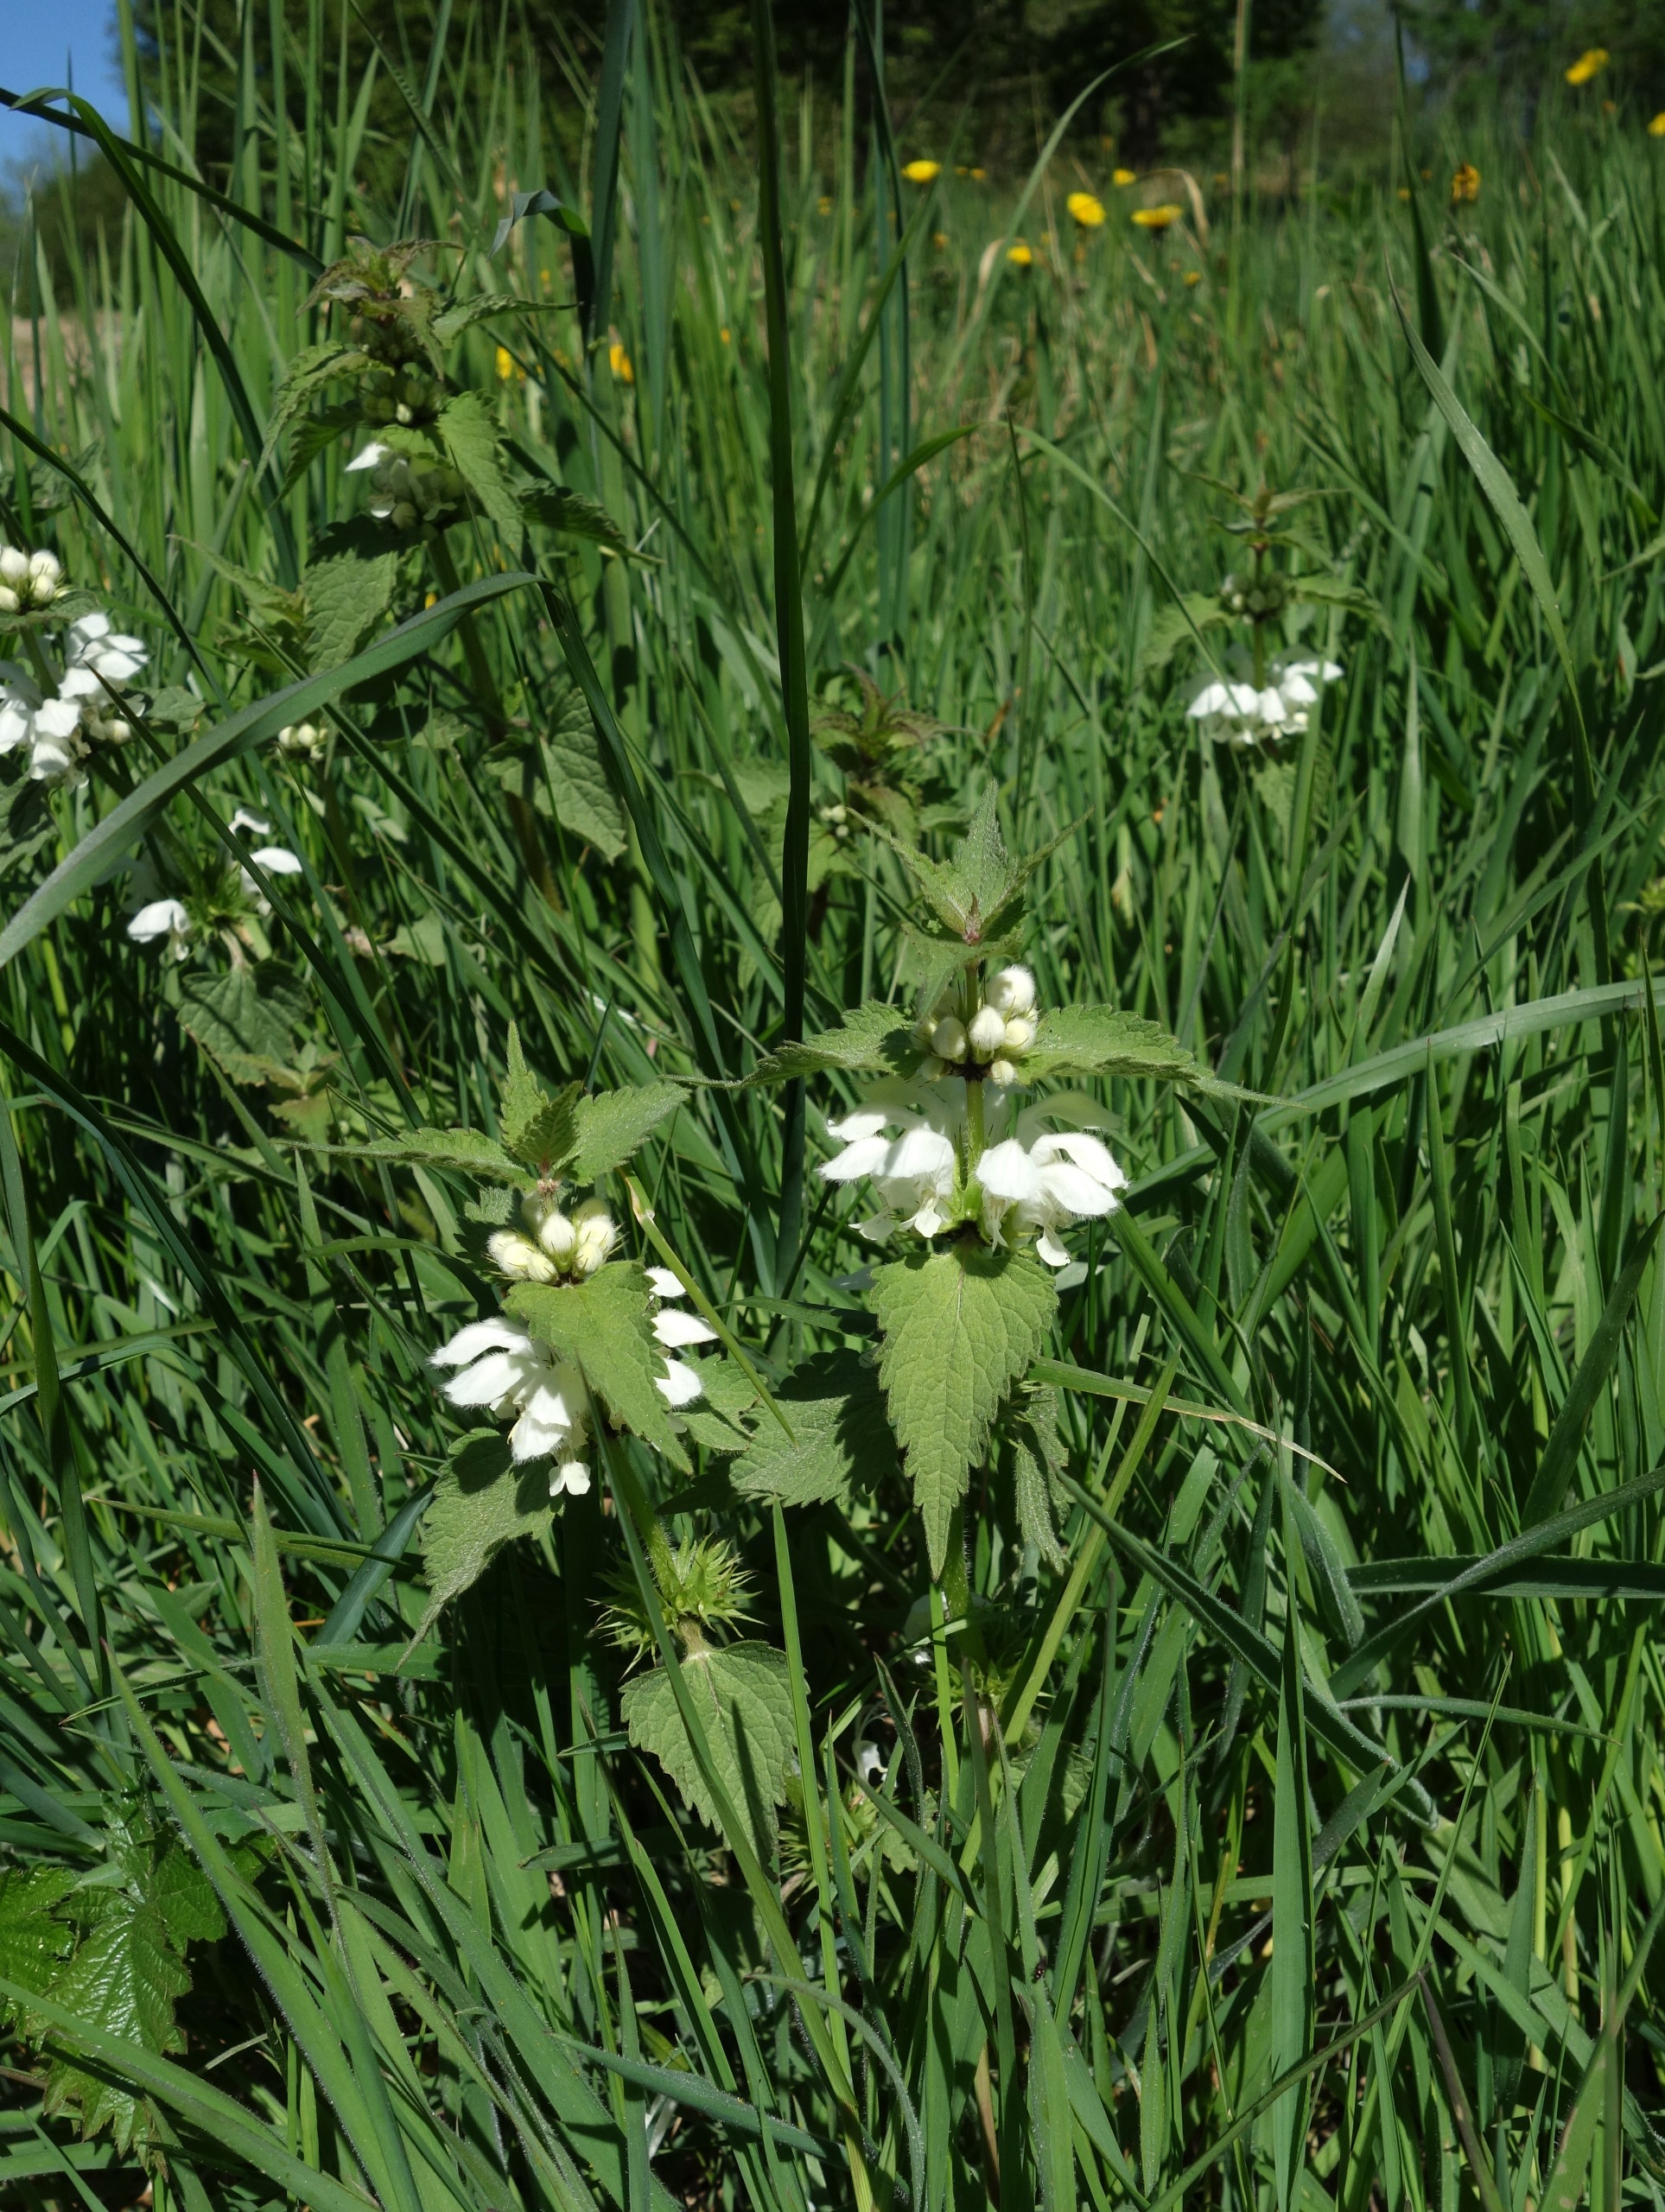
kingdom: Plantae
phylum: Tracheophyta
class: Magnoliopsida
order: Lamiales
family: Lamiaceae
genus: Lamium
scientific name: Lamium album
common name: Døvnælde
